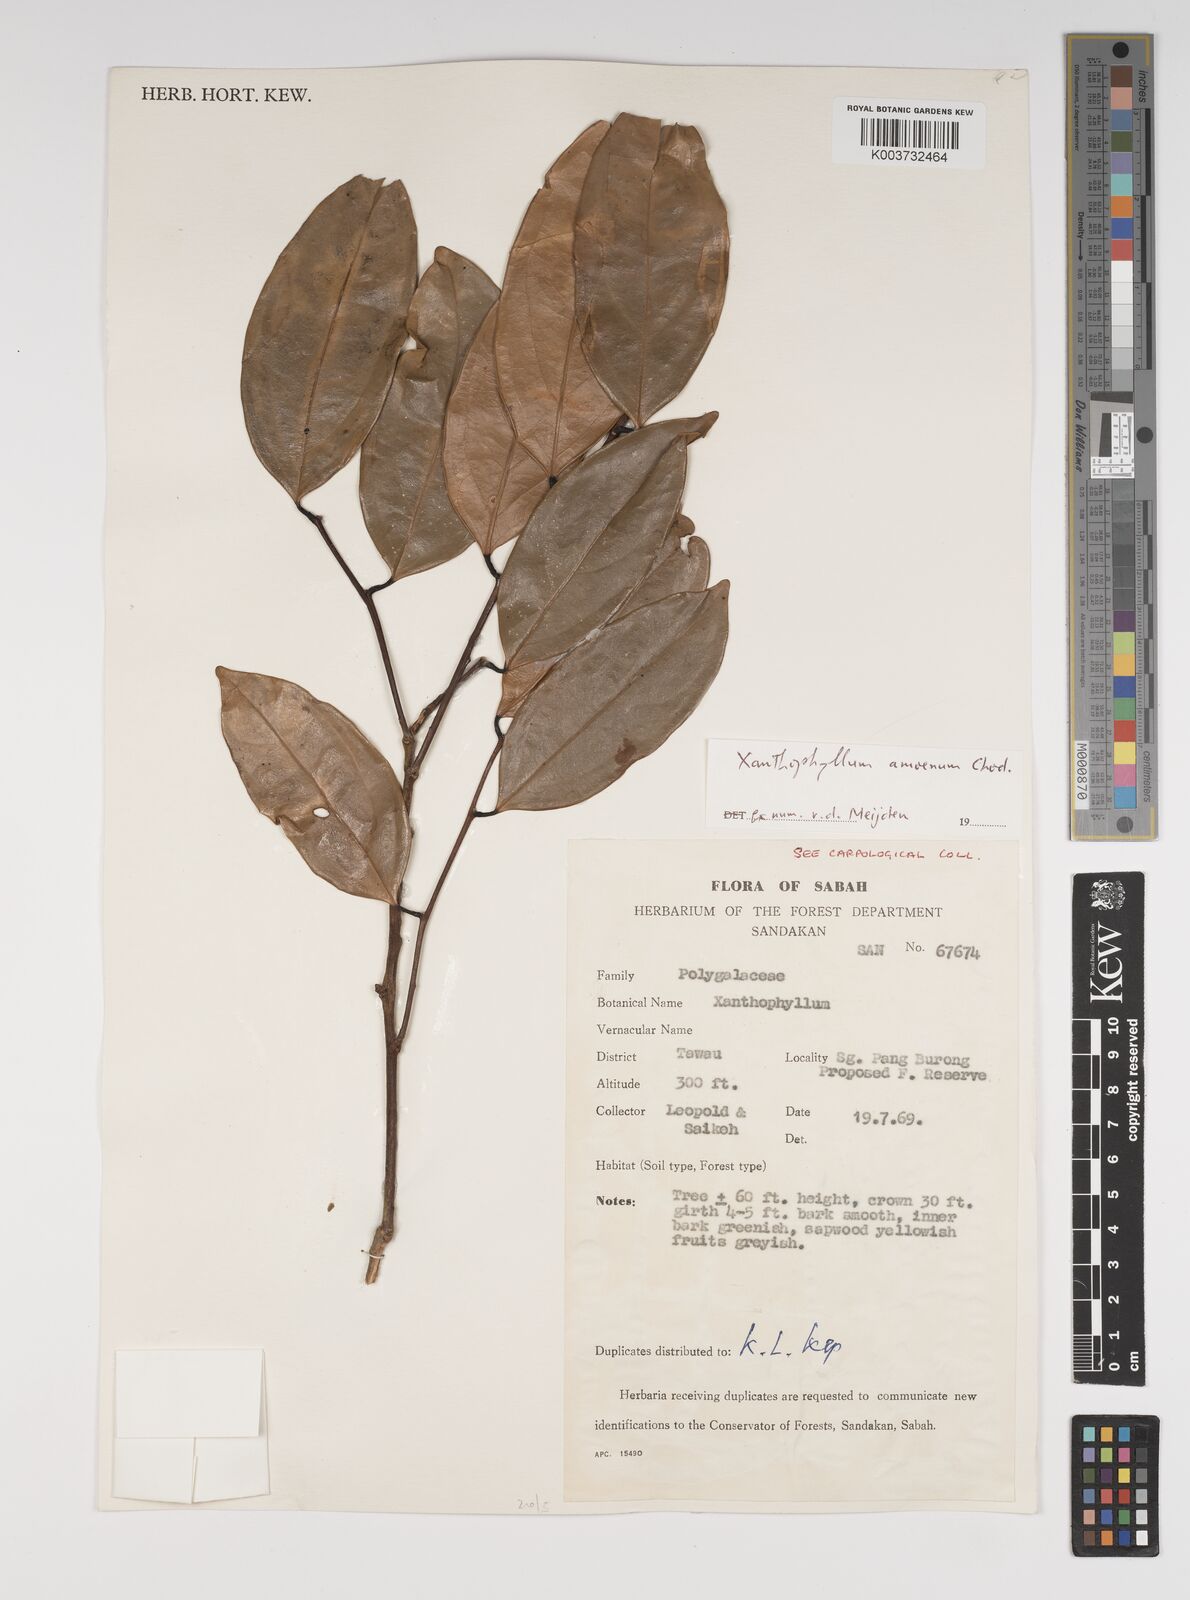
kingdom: Plantae
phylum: Tracheophyta
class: Magnoliopsida
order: Fabales
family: Polygalaceae
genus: Xanthophyllum
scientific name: Xanthophyllum stipitatum
